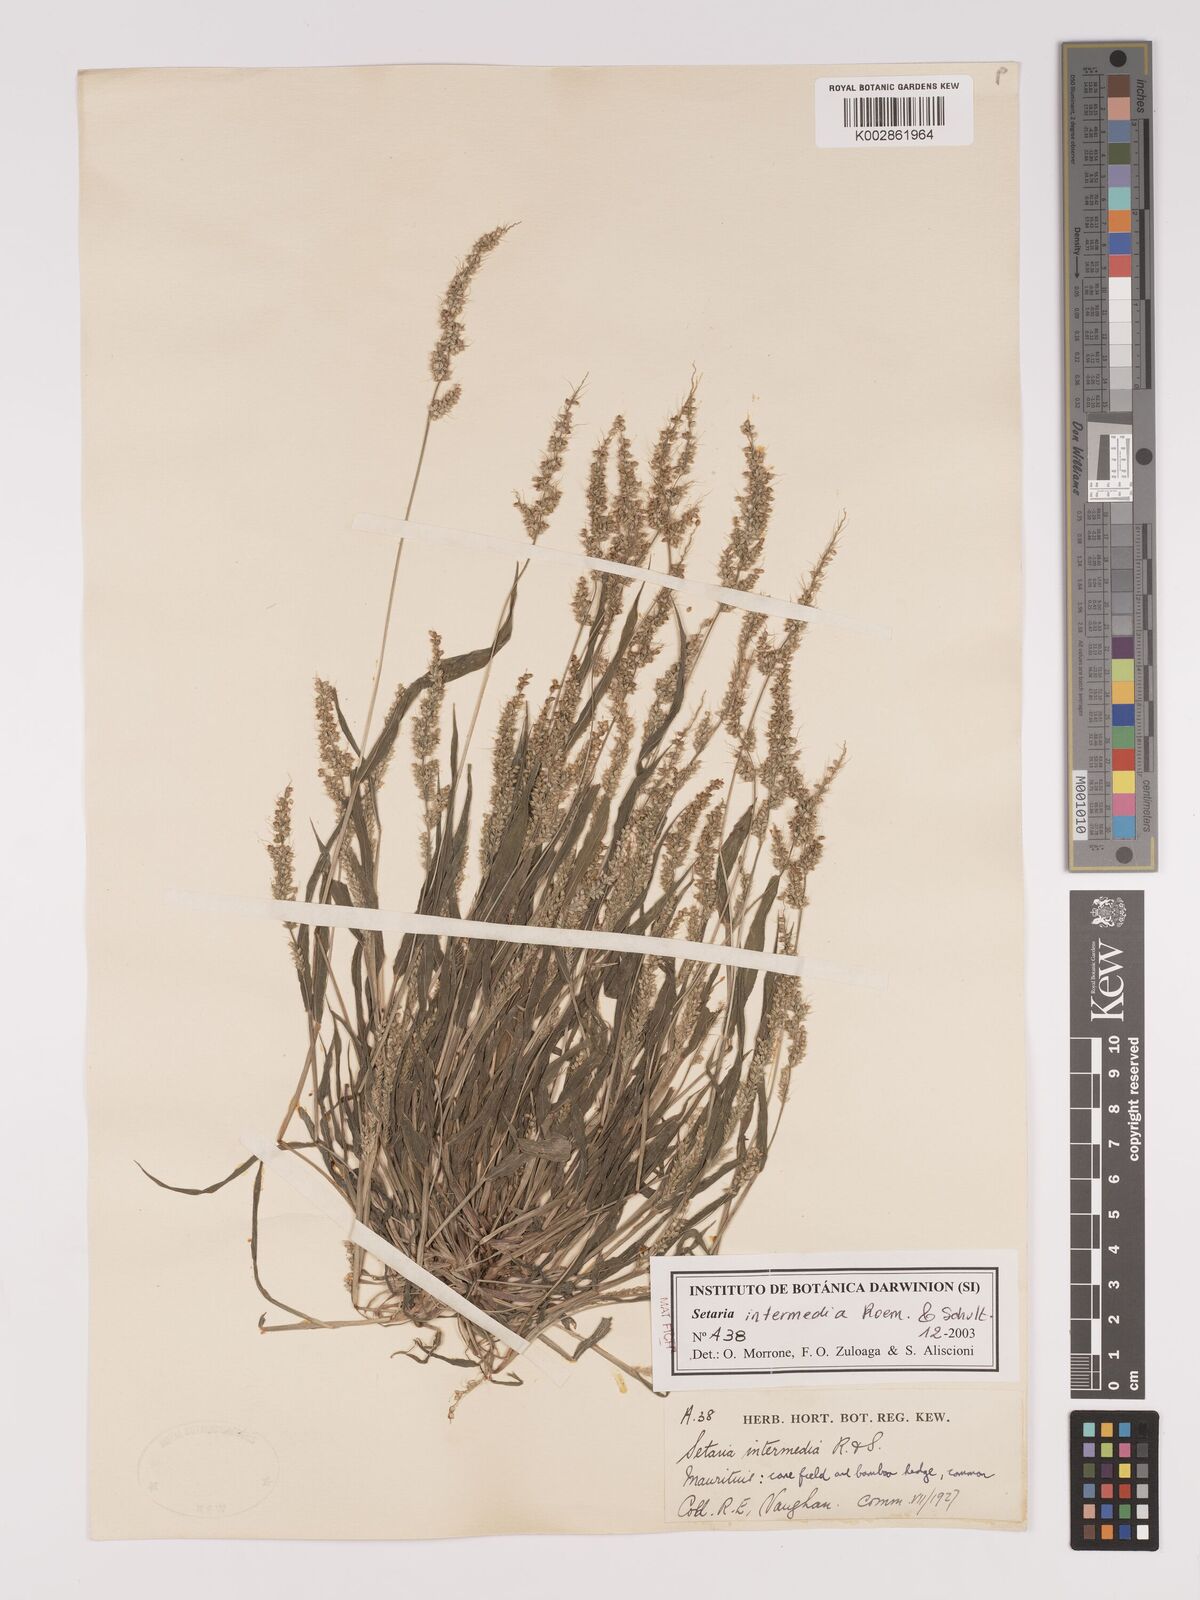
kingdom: Plantae
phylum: Tracheophyta
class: Liliopsida
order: Poales
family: Poaceae
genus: Setaria
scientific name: Setaria intermedia
